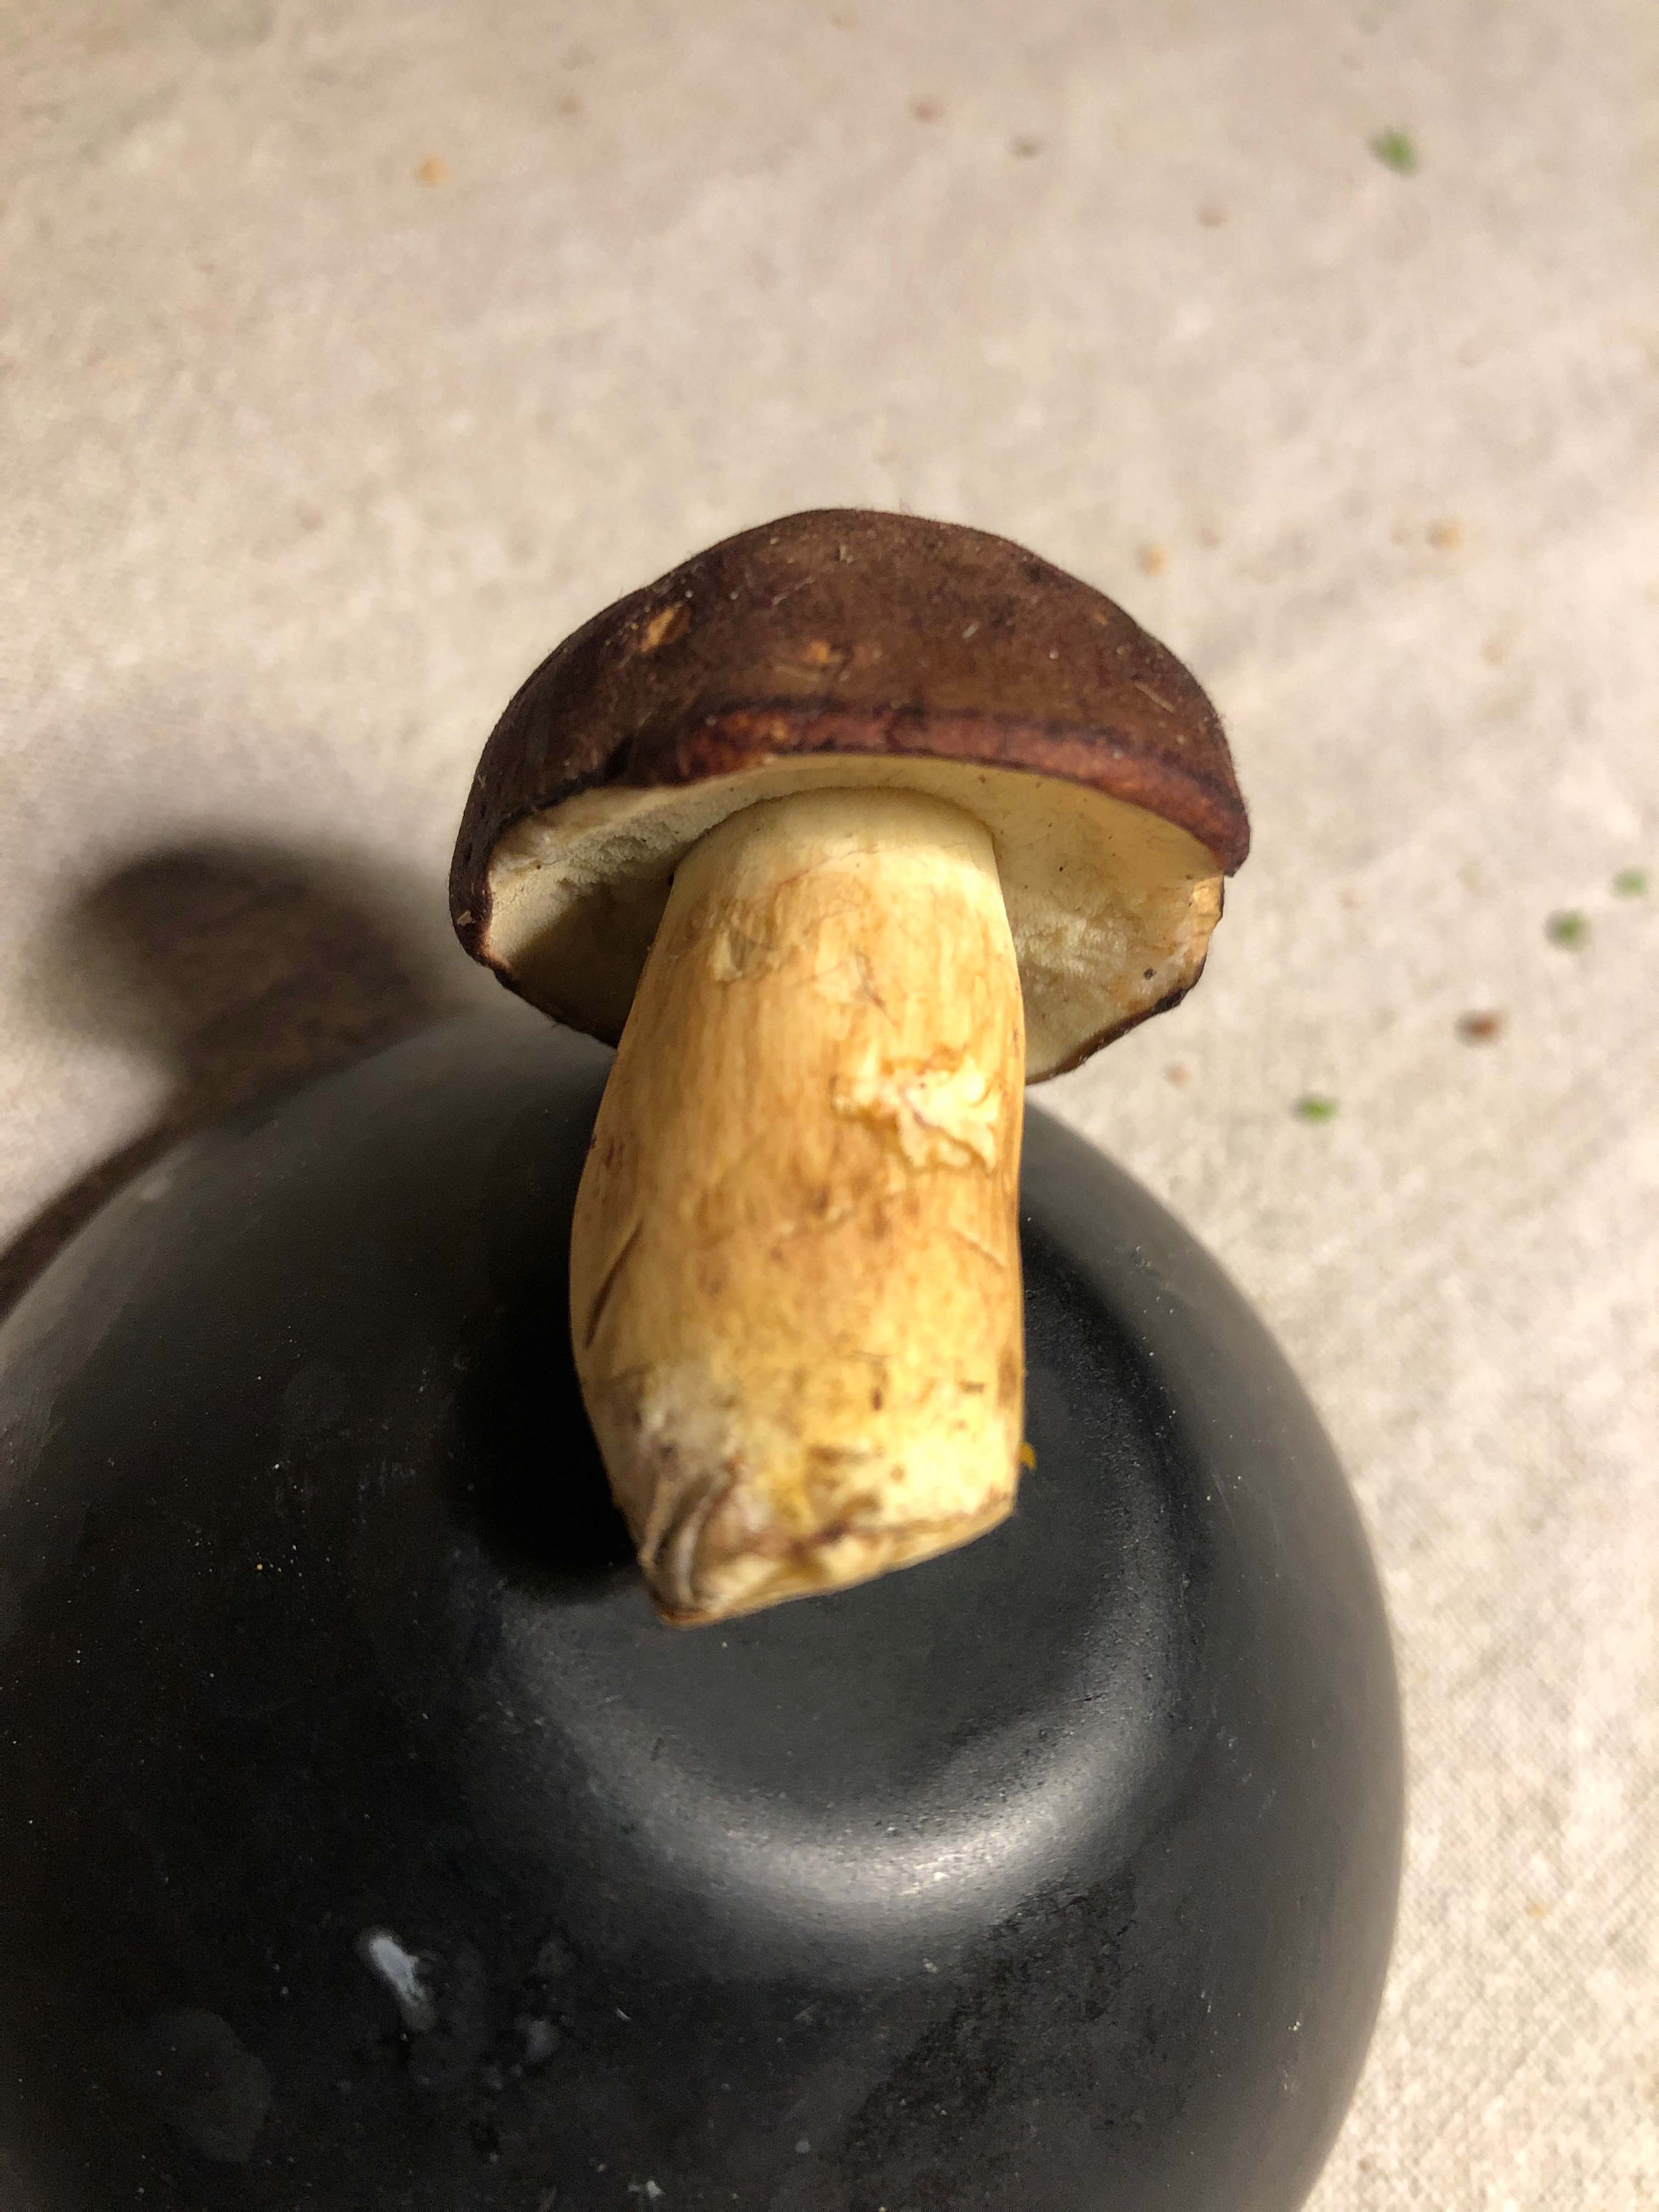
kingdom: Fungi
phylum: Basidiomycota
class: Agaricomycetes
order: Boletales
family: Boletaceae
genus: Imleria
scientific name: Imleria badia
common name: brunstokket rørhat
